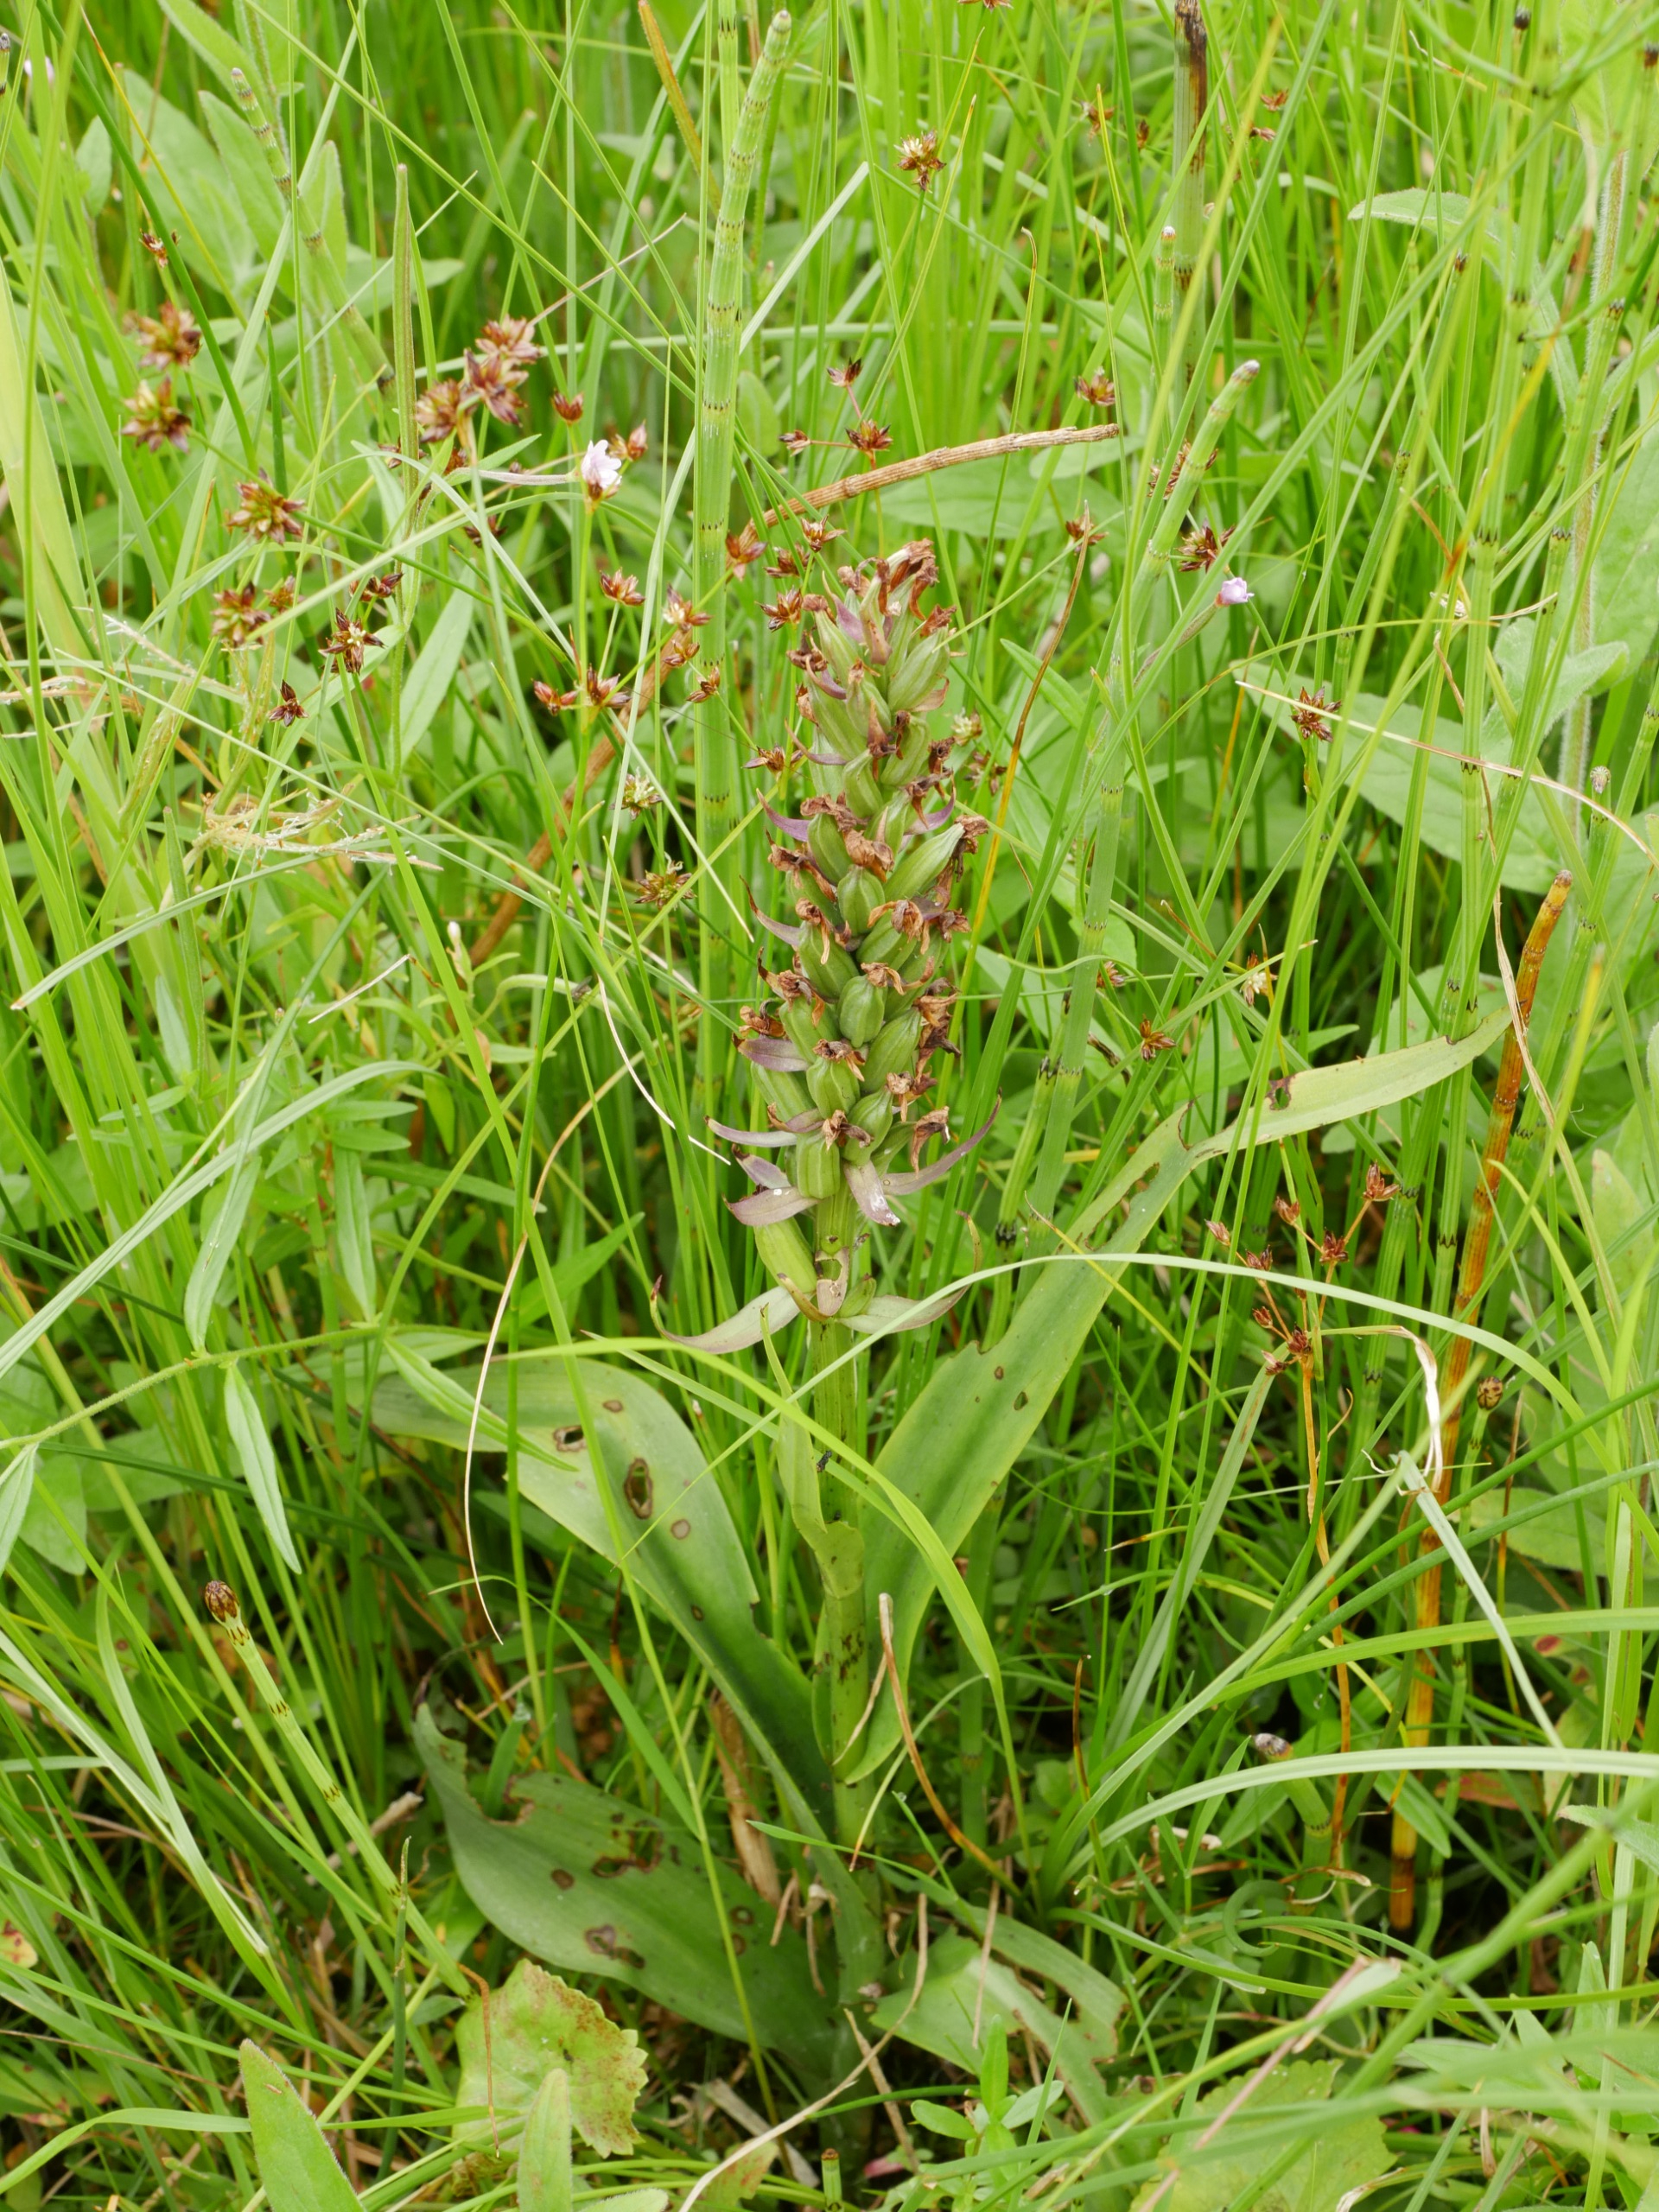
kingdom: Plantae
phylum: Tracheophyta
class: Liliopsida
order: Asparagales
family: Orchidaceae
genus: Dactylorhiza
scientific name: Dactylorhiza majalis
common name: Maj-gøgeurt
